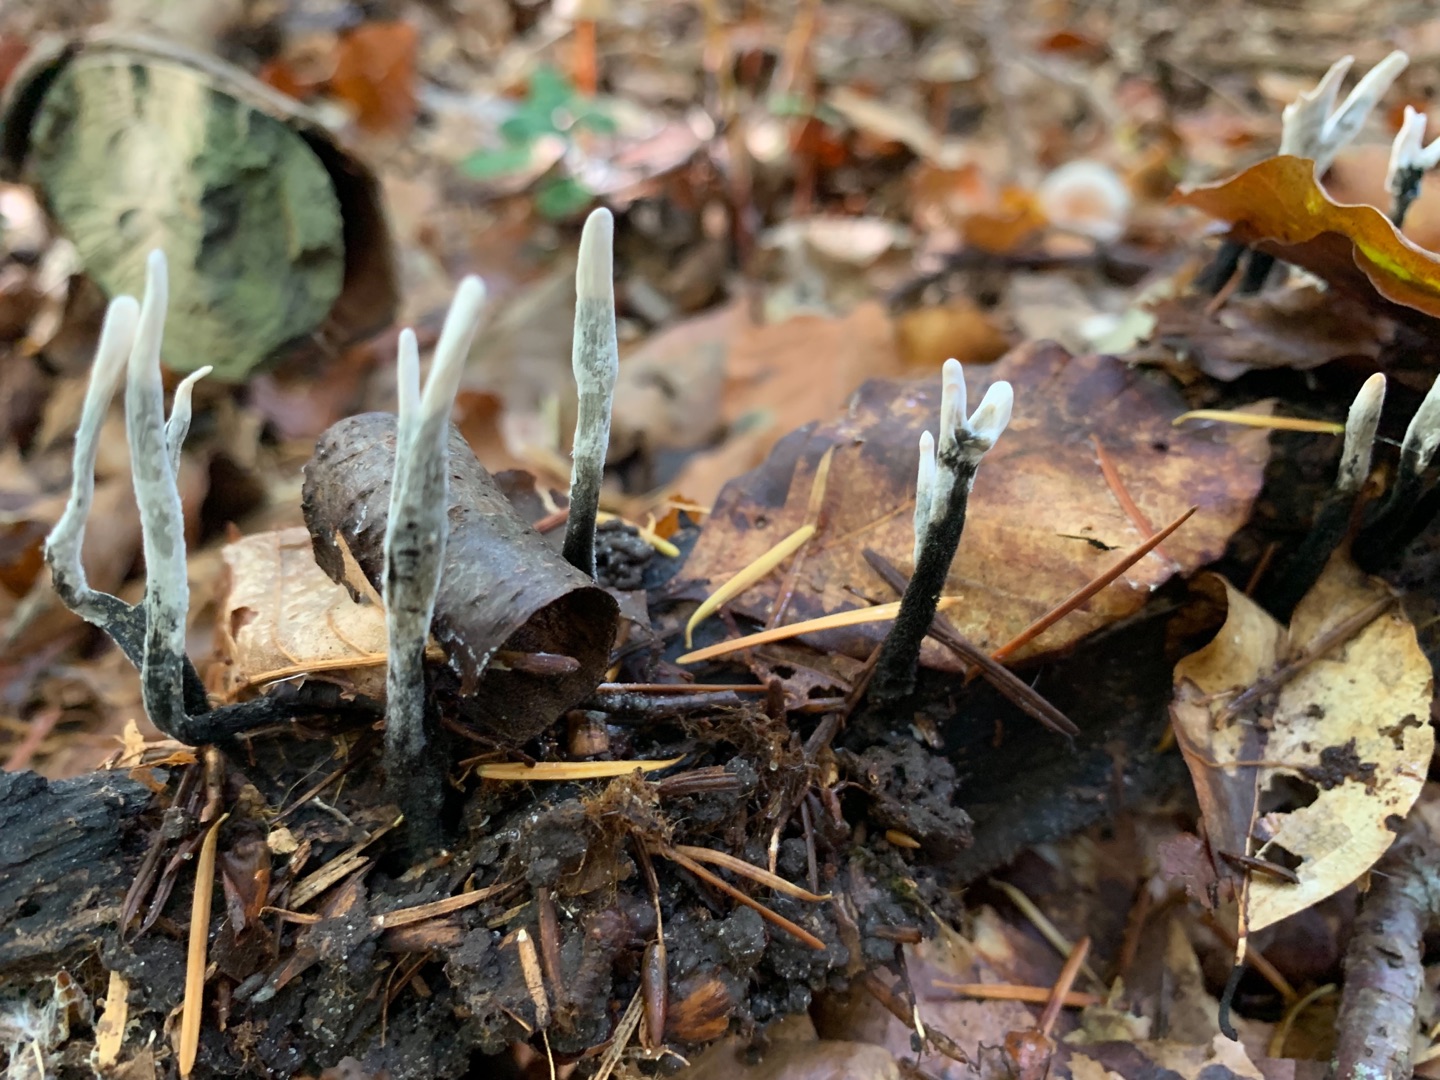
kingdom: Fungi
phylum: Ascomycota
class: Sordariomycetes
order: Xylariales
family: Xylariaceae
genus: Xylaria
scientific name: Xylaria hypoxylon
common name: Grenet stødsvamp
